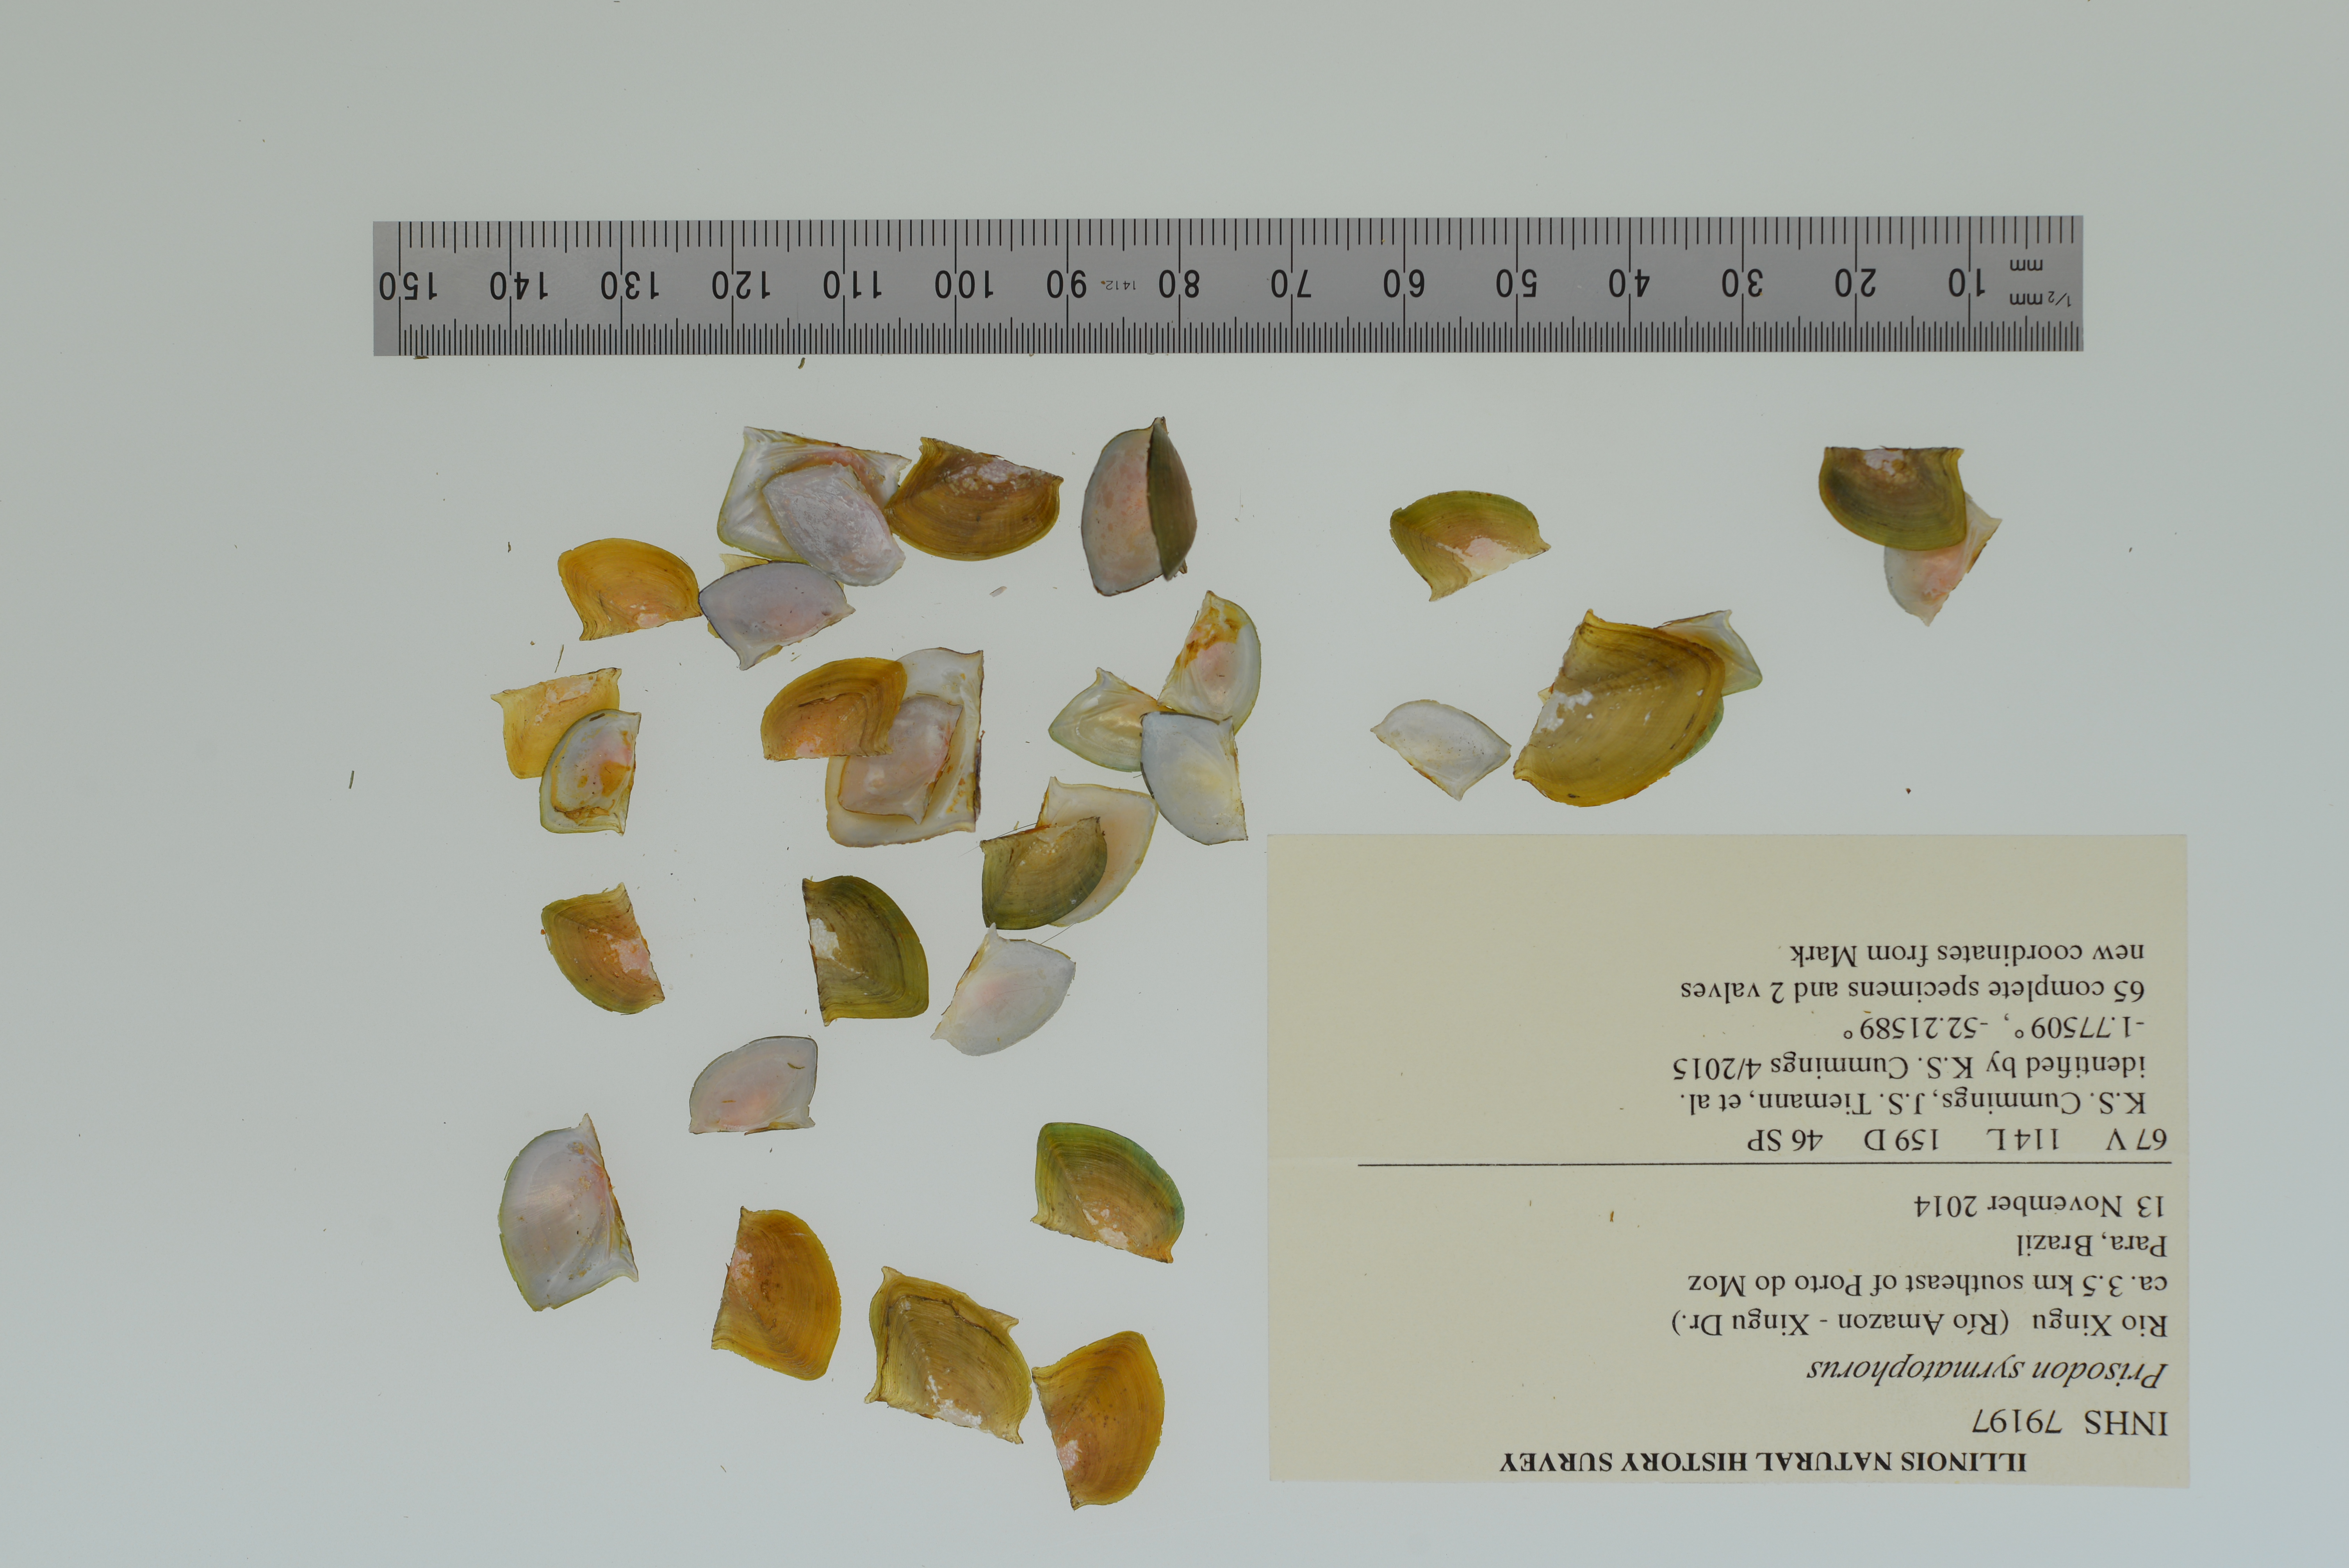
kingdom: Animalia
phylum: Mollusca
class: Bivalvia
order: Unionida
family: Hyriidae
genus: Prisodon
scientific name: Prisodon syrmatophorus
